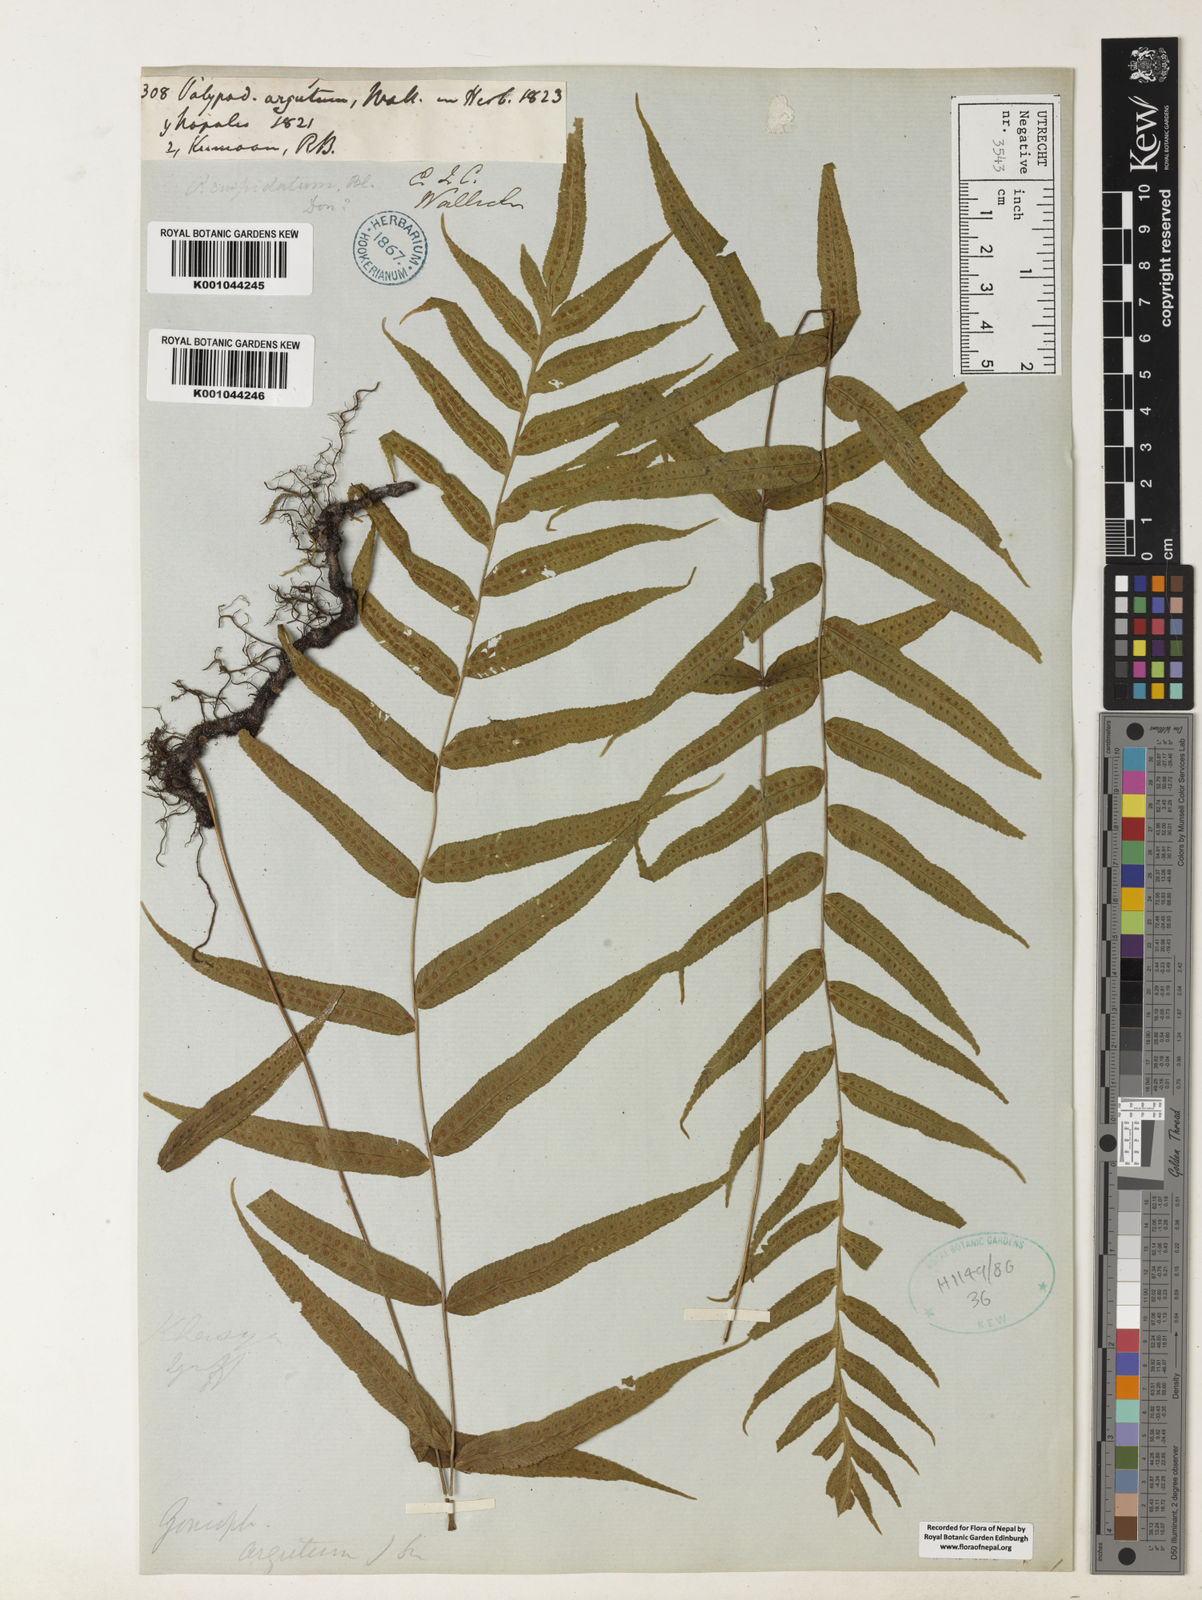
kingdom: Plantae
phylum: Tracheophyta
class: Polypodiopsida
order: Polypodiales
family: Polypodiaceae
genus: Goniophlebium
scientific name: Goniophlebium argutum
